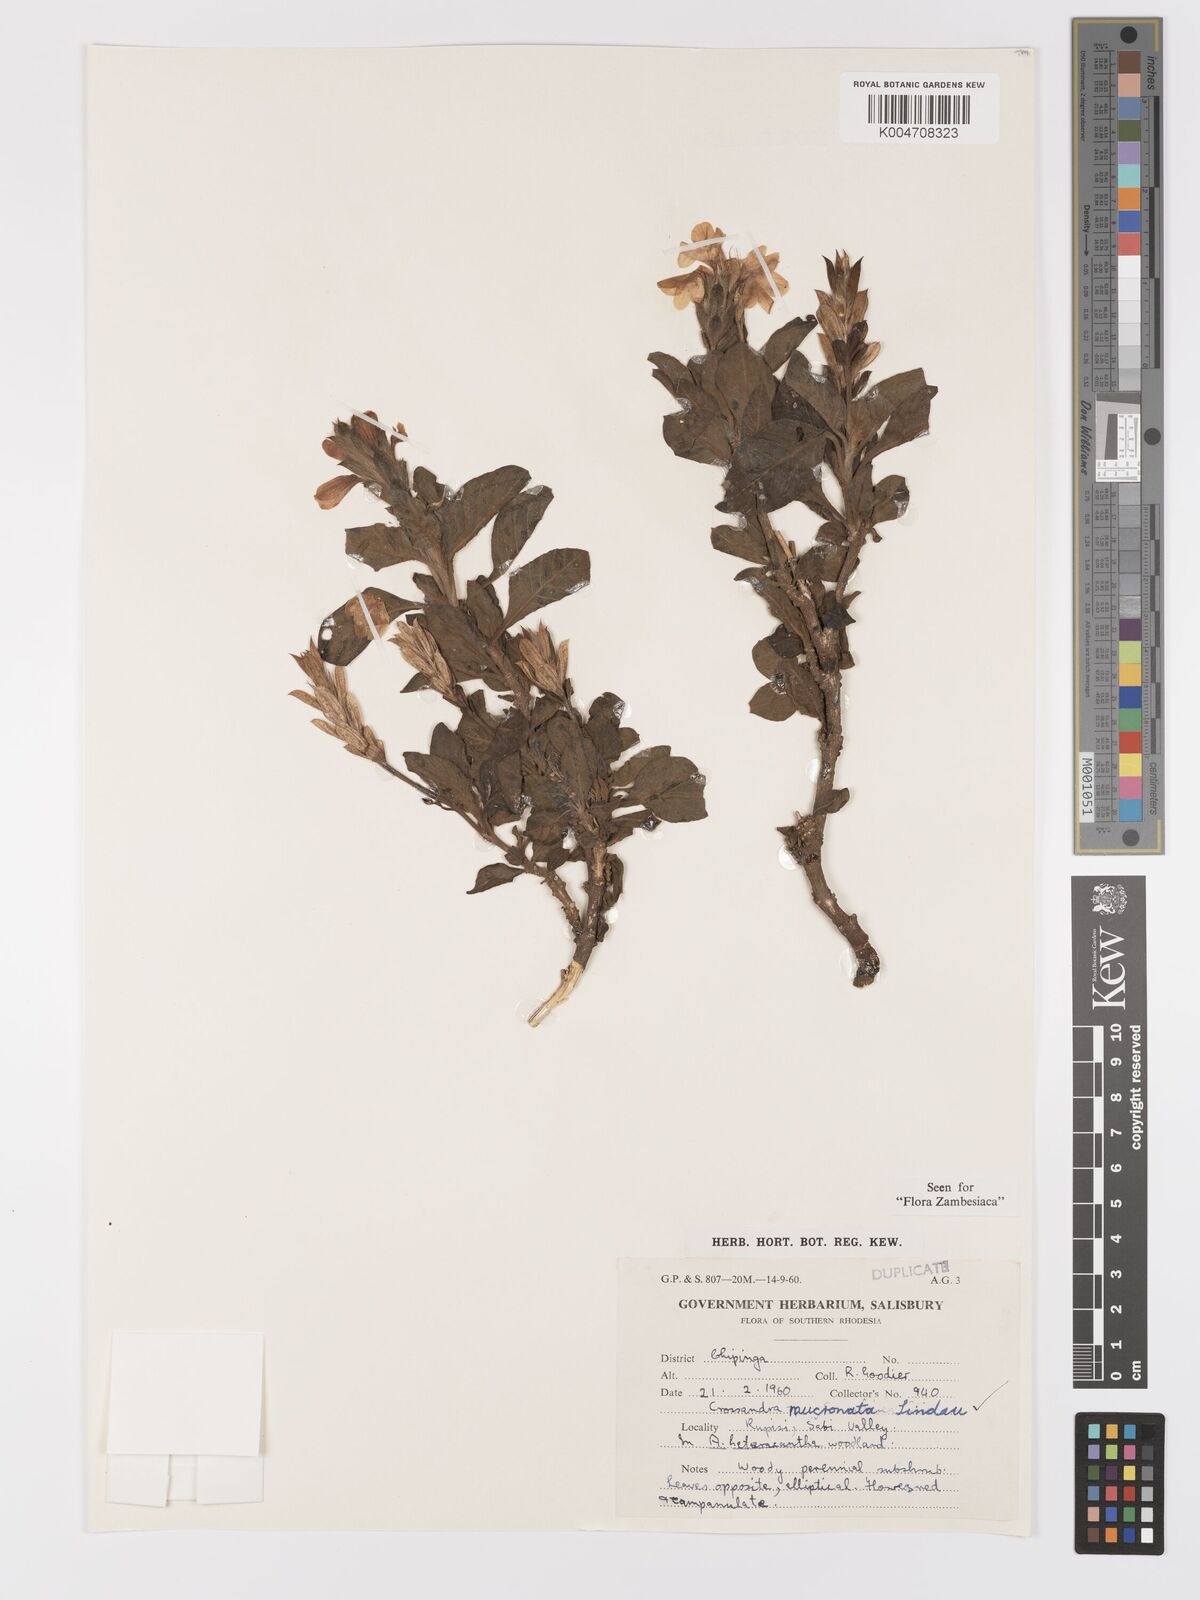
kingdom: Plantae
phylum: Tracheophyta
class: Magnoliopsida
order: Lamiales
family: Acanthaceae
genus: Crossandra
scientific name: Crossandra mucronata
